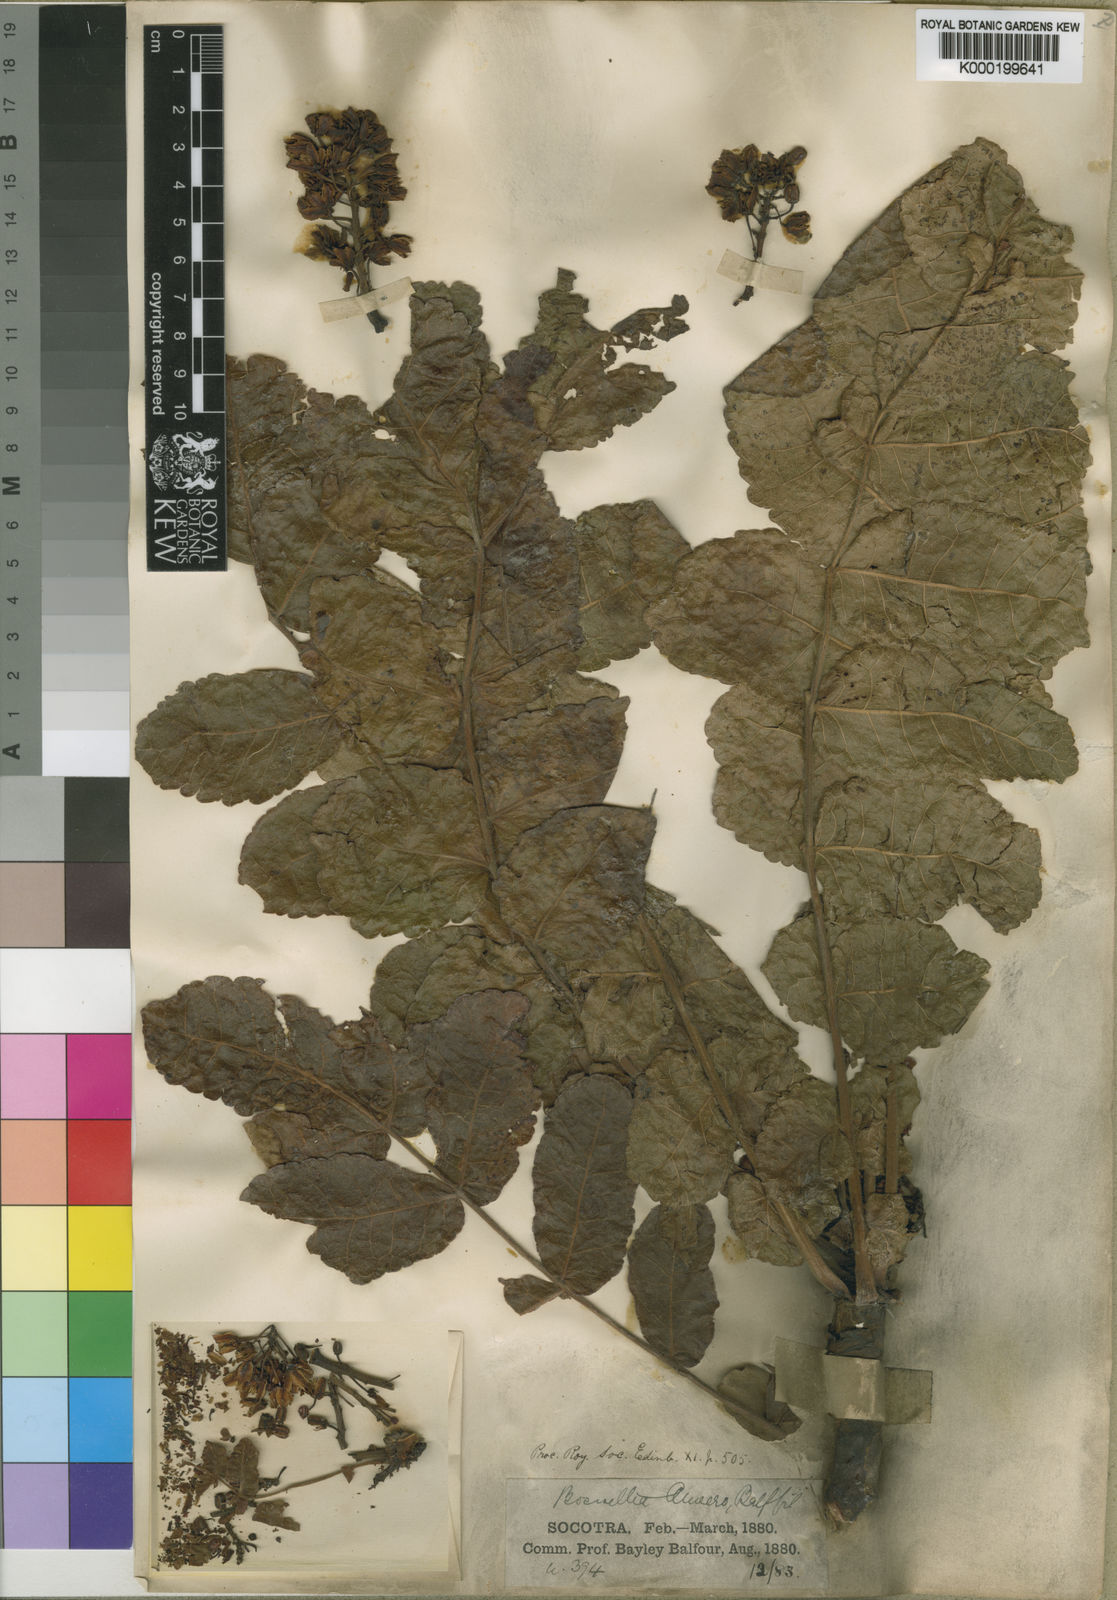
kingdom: Plantae
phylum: Tracheophyta
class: Magnoliopsida
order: Sapindales
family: Burseraceae
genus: Boswellia
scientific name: Boswellia ameero
